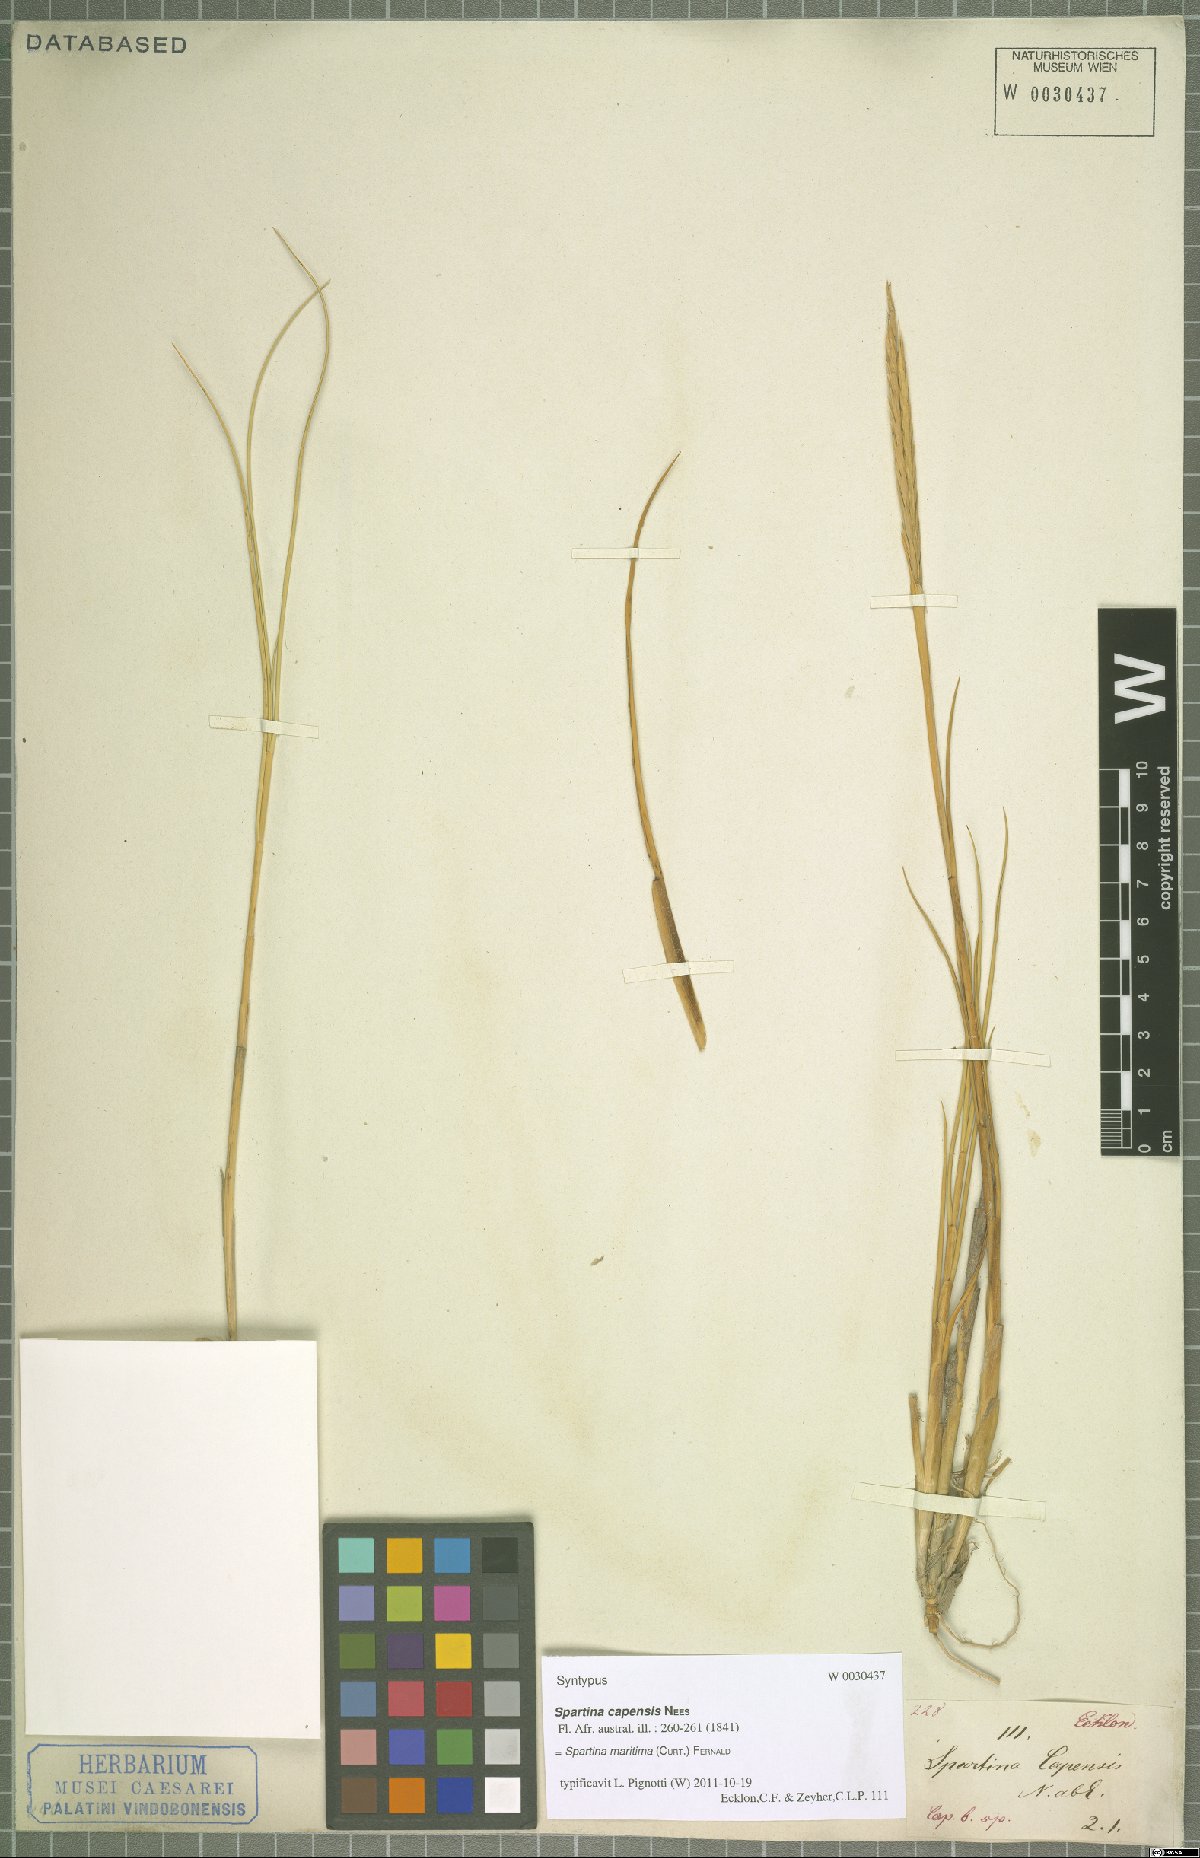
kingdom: Plantae
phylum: Tracheophyta
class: Liliopsida
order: Poales
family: Poaceae
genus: Sporobolus
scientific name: Sporobolus maritimus
